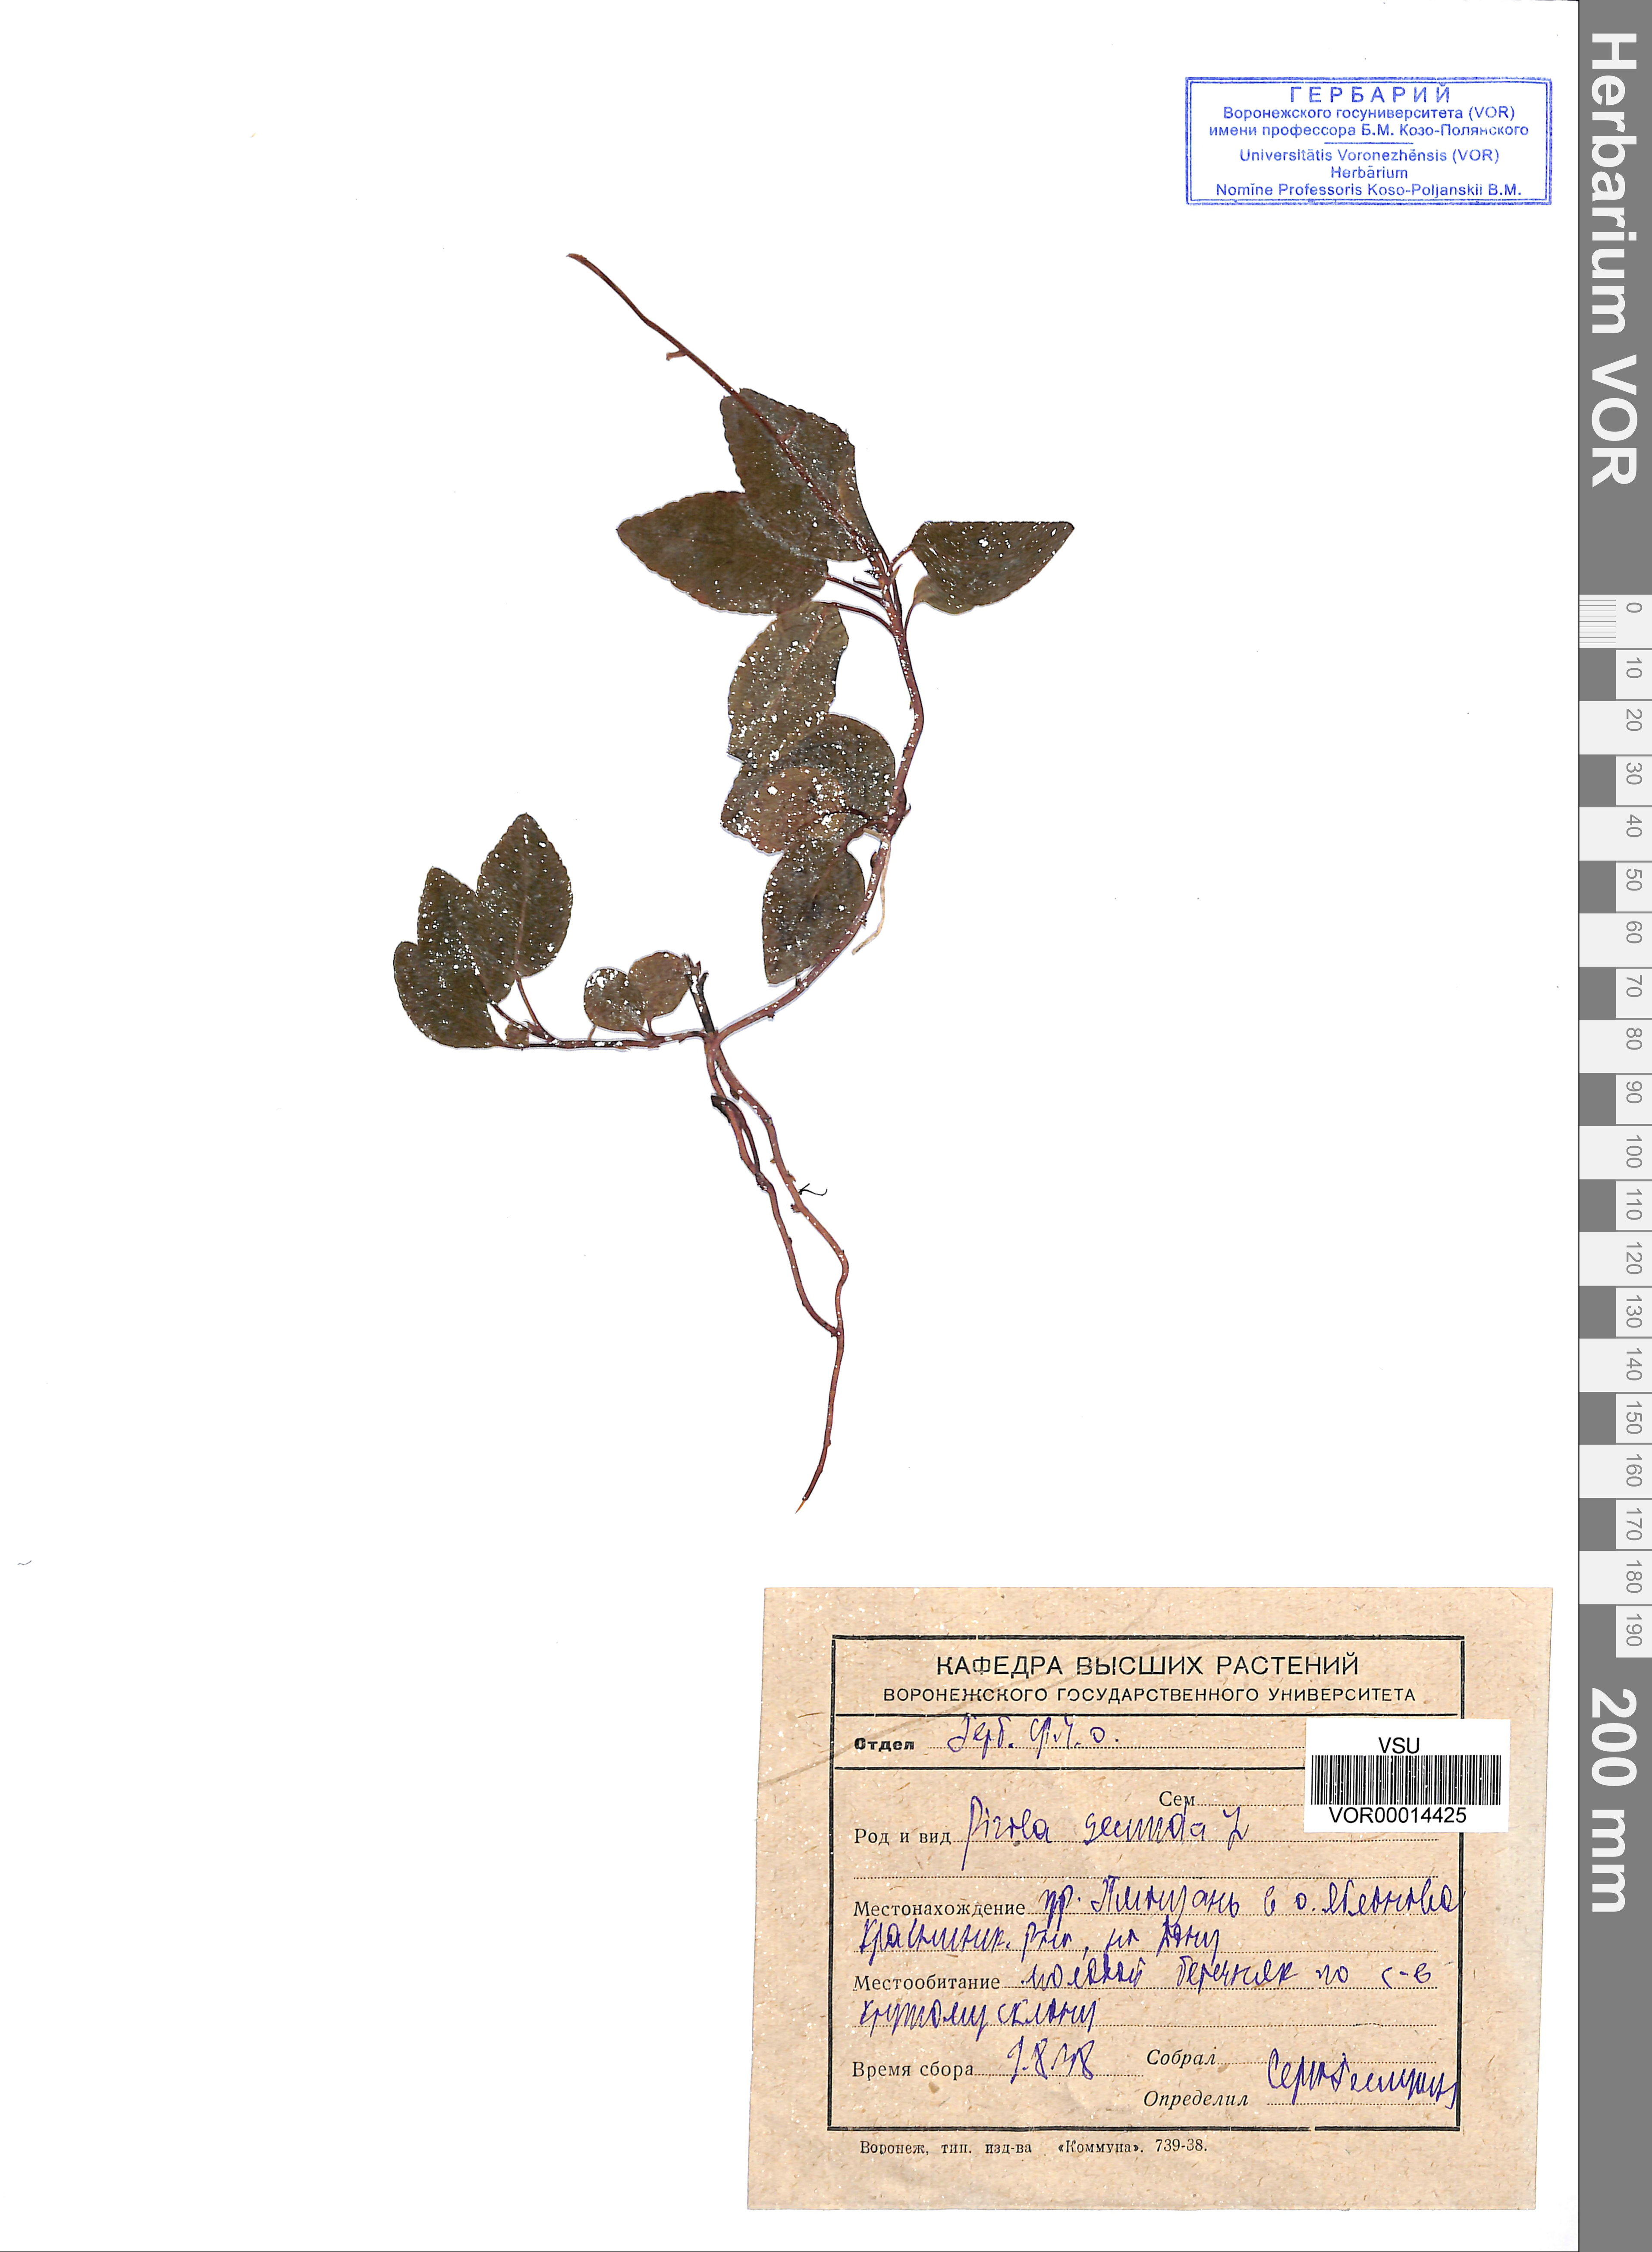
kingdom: Plantae
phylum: Tracheophyta
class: Magnoliopsida
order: Ericales
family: Ericaceae
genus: Orthilia
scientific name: Orthilia secunda
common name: One-sided orthilia
